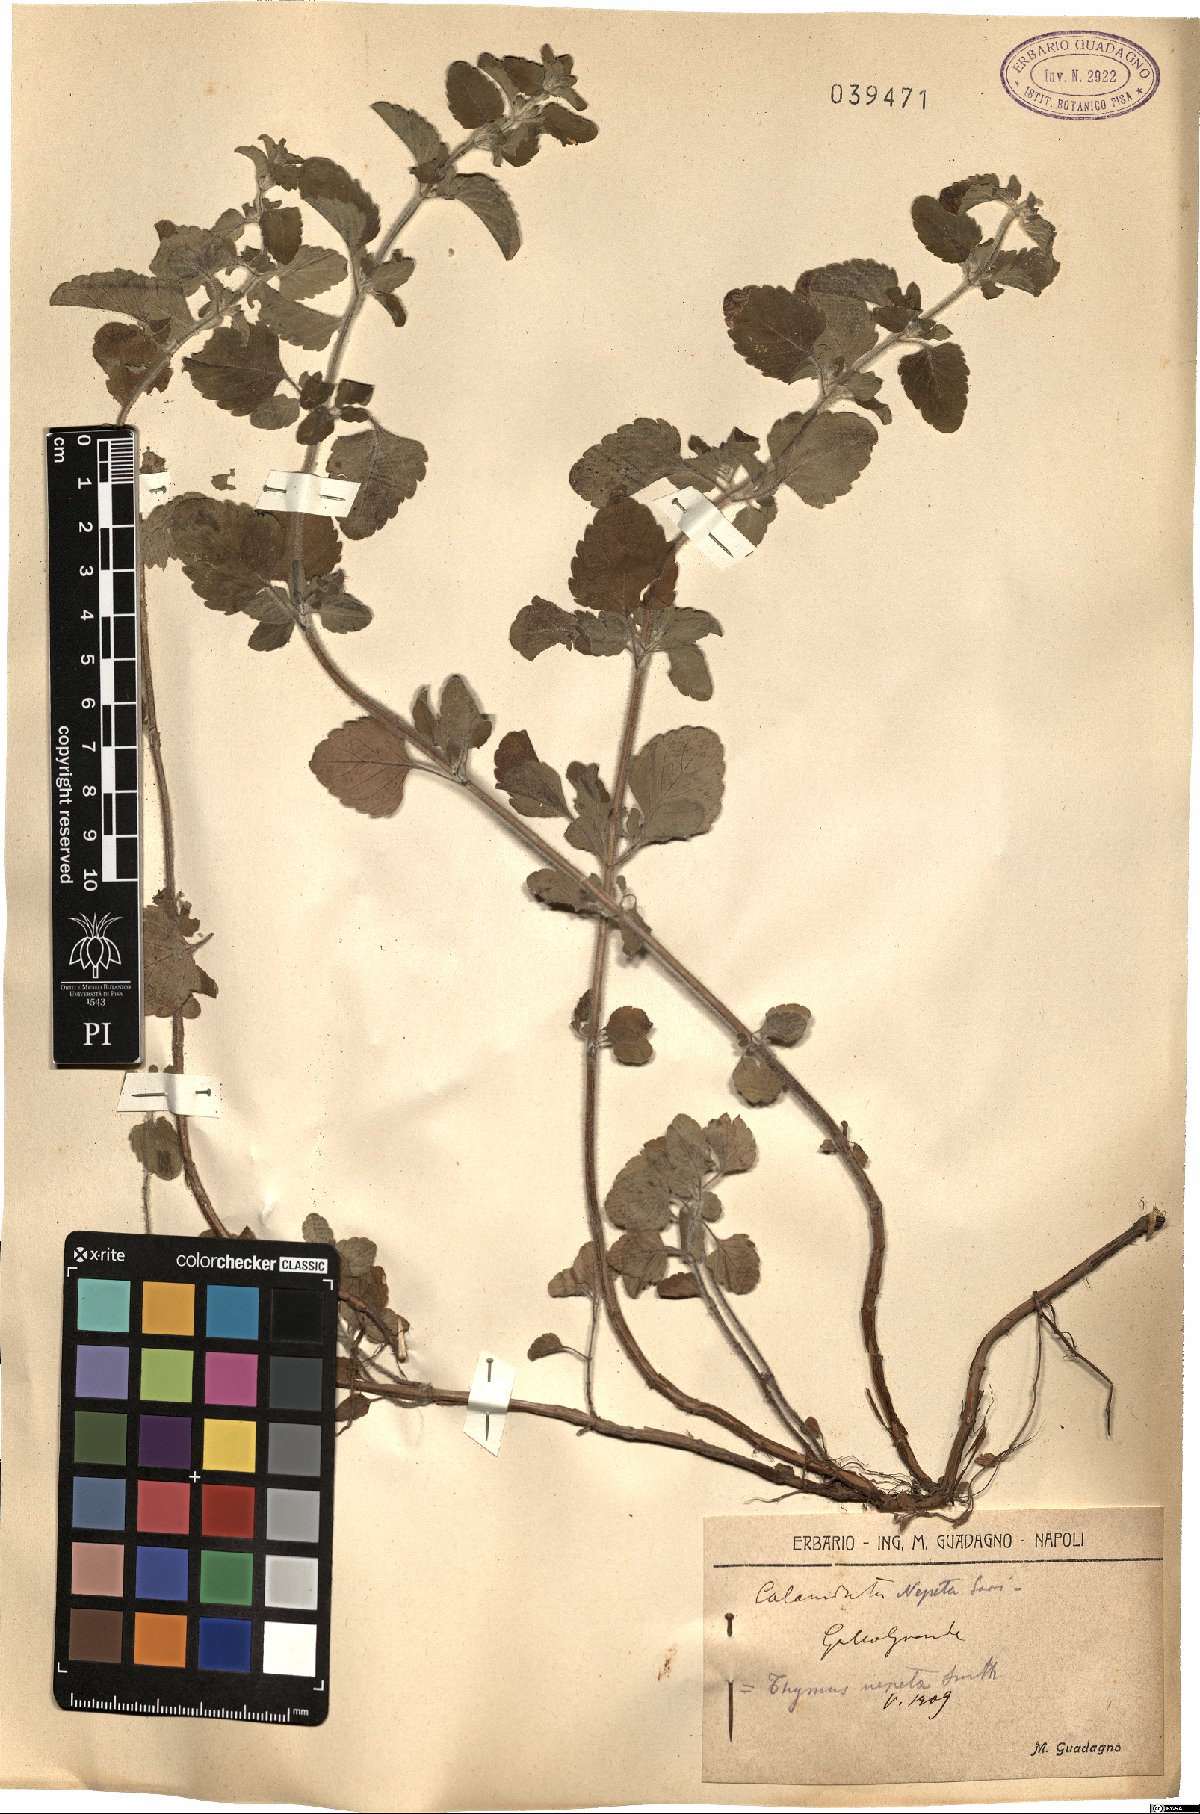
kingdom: Plantae
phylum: Tracheophyta
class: Magnoliopsida
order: Lamiales
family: Lamiaceae
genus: Clinopodium
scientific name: Clinopodium nepeta
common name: Lesser calamint
